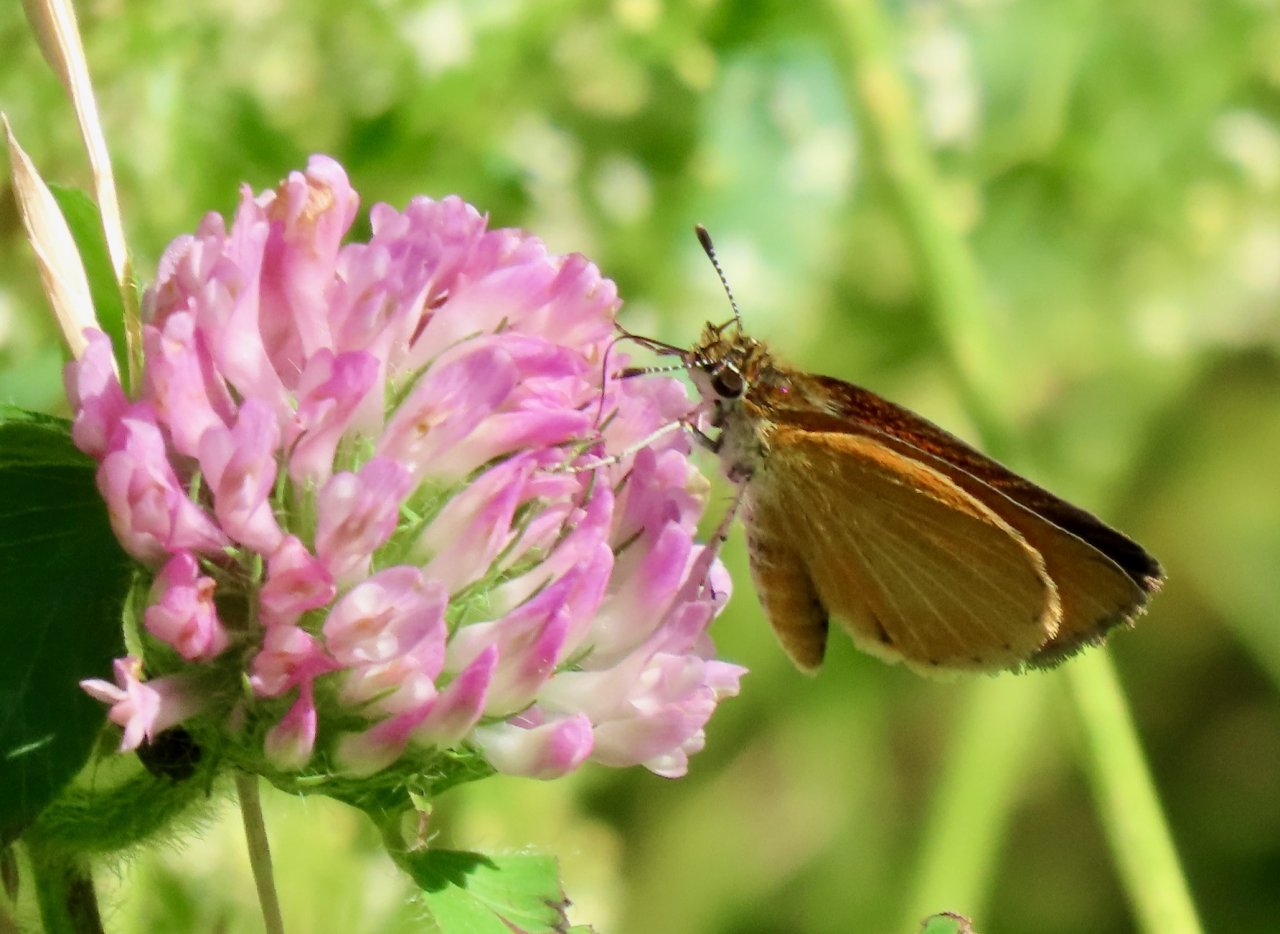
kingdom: Animalia
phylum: Arthropoda
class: Insecta
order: Lepidoptera
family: Hesperiidae
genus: Thymelicus
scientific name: Thymelicus lineola
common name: European Skipper
